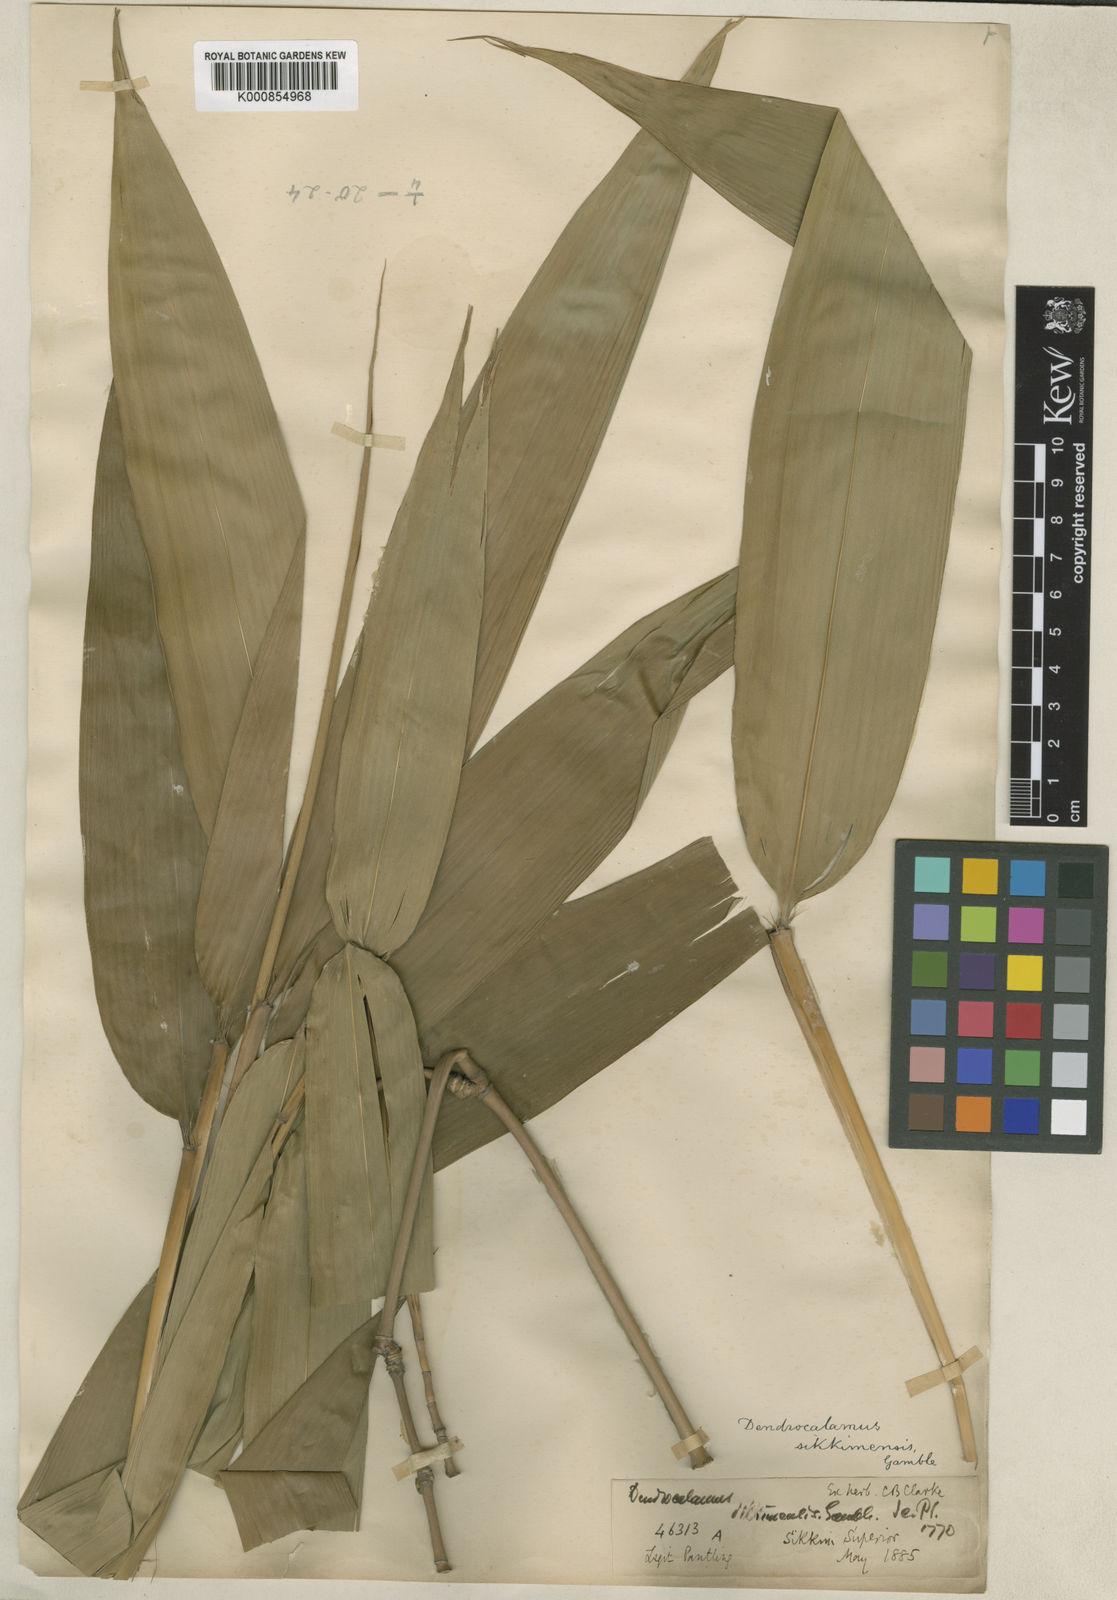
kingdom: Plantae
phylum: Tracheophyta
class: Liliopsida
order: Poales
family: Poaceae
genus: Dendrocalamus
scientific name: Dendrocalamus sikkimensis
